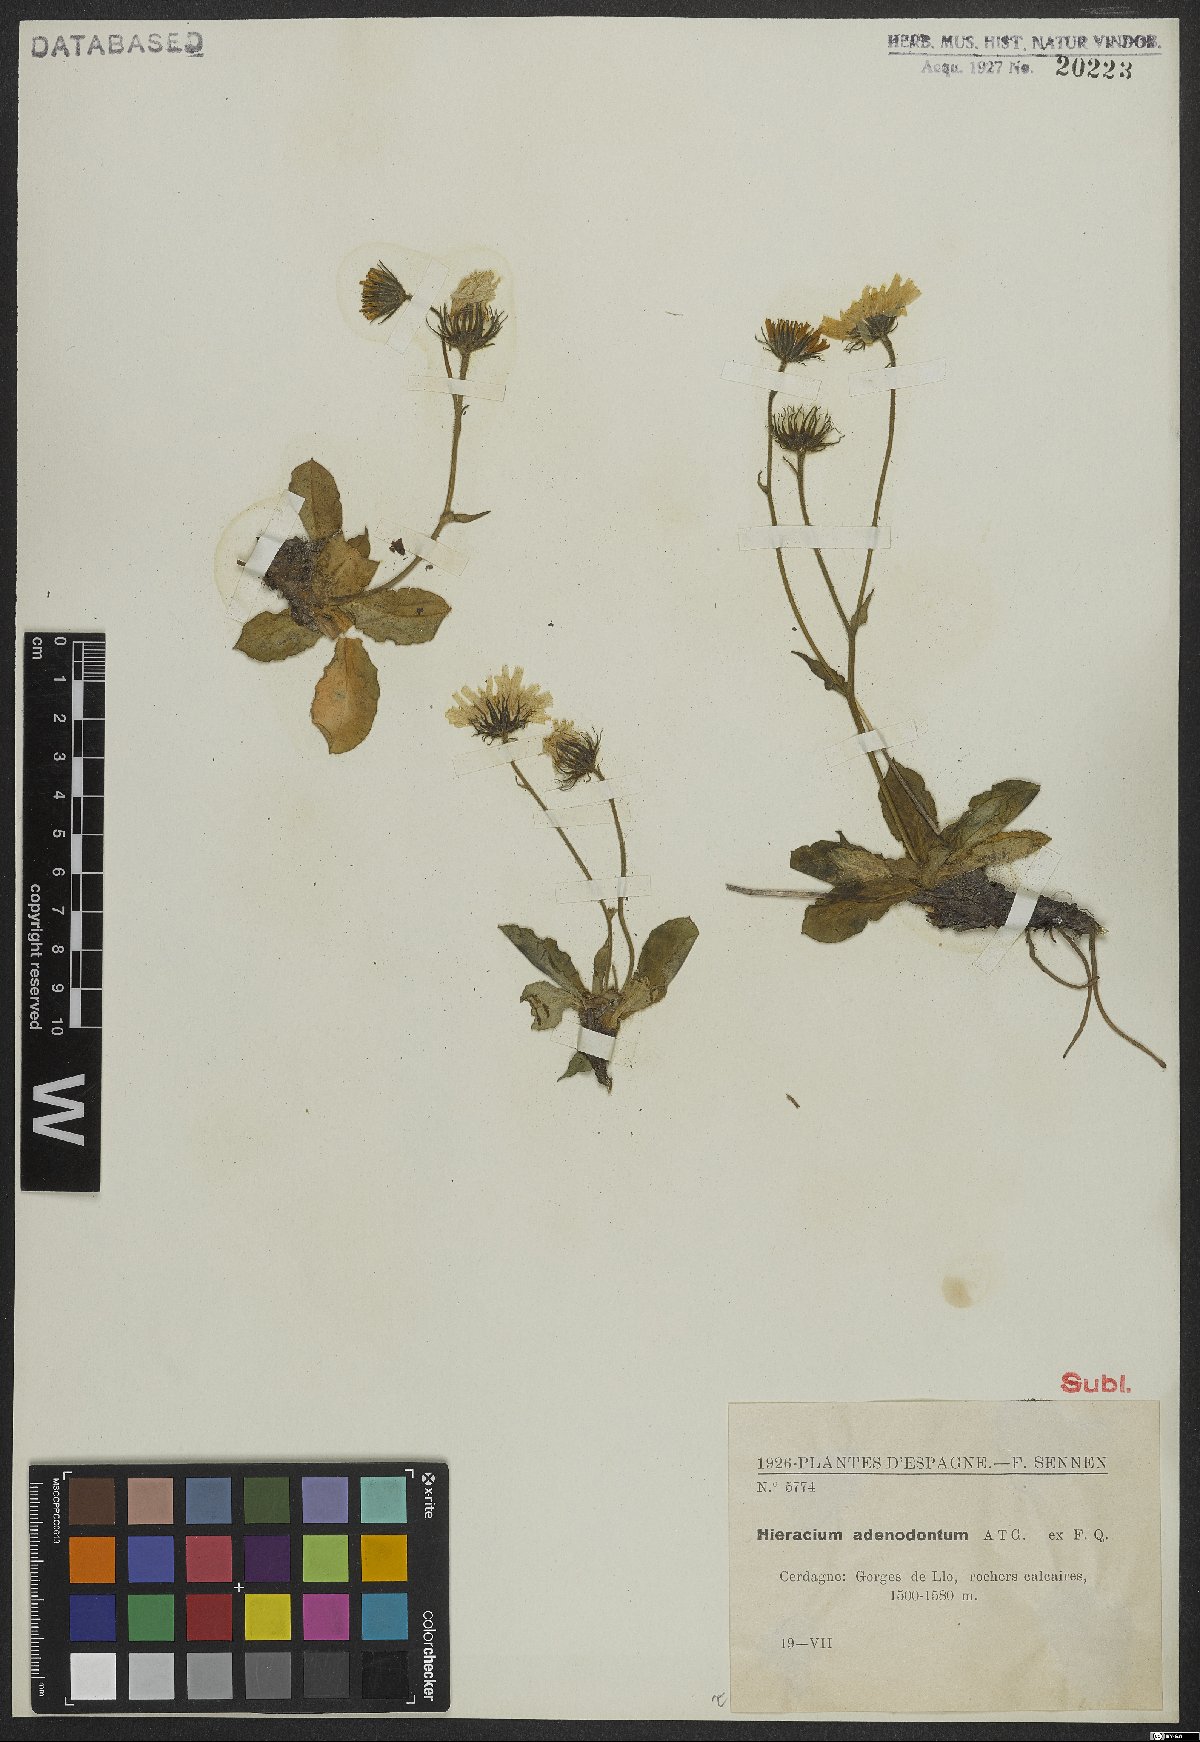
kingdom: Plantae
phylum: Tracheophyta
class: Magnoliopsida
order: Asterales
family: Asteraceae
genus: Hieracium
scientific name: Hieracium adenodontum
